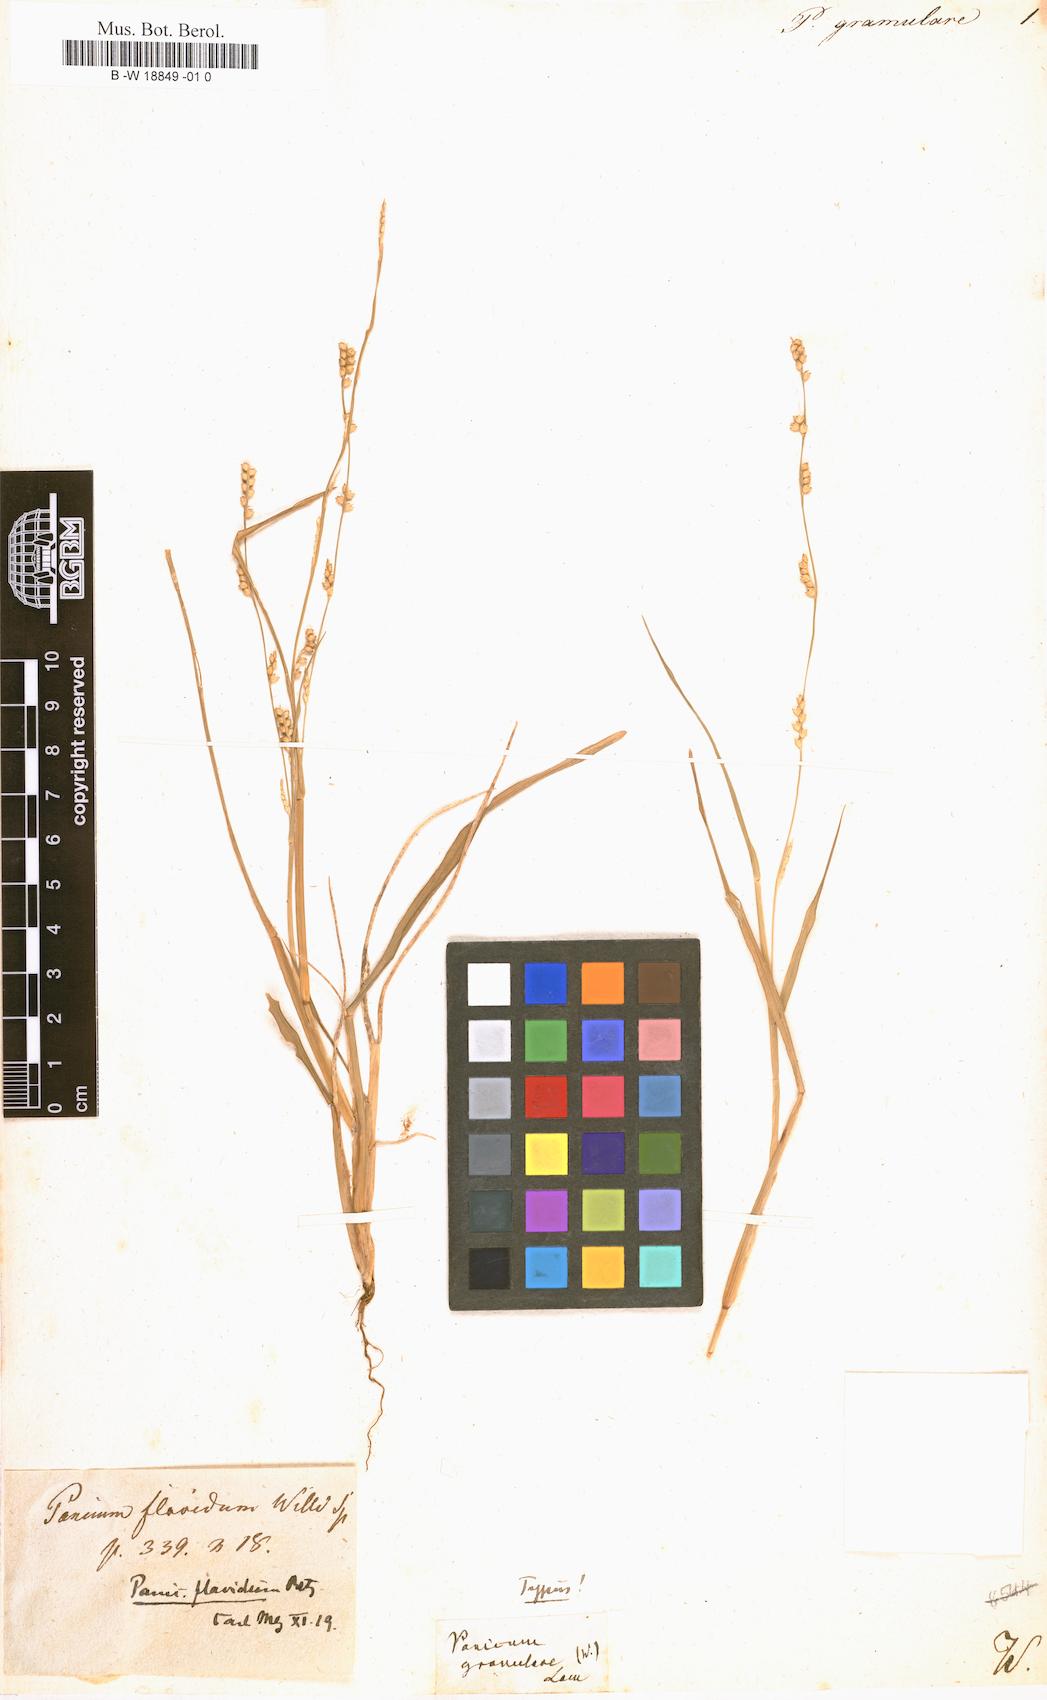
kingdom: Plantae
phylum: Tracheophyta
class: Liliopsida
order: Poales
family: Poaceae
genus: Setaria
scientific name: Setaria flavida
